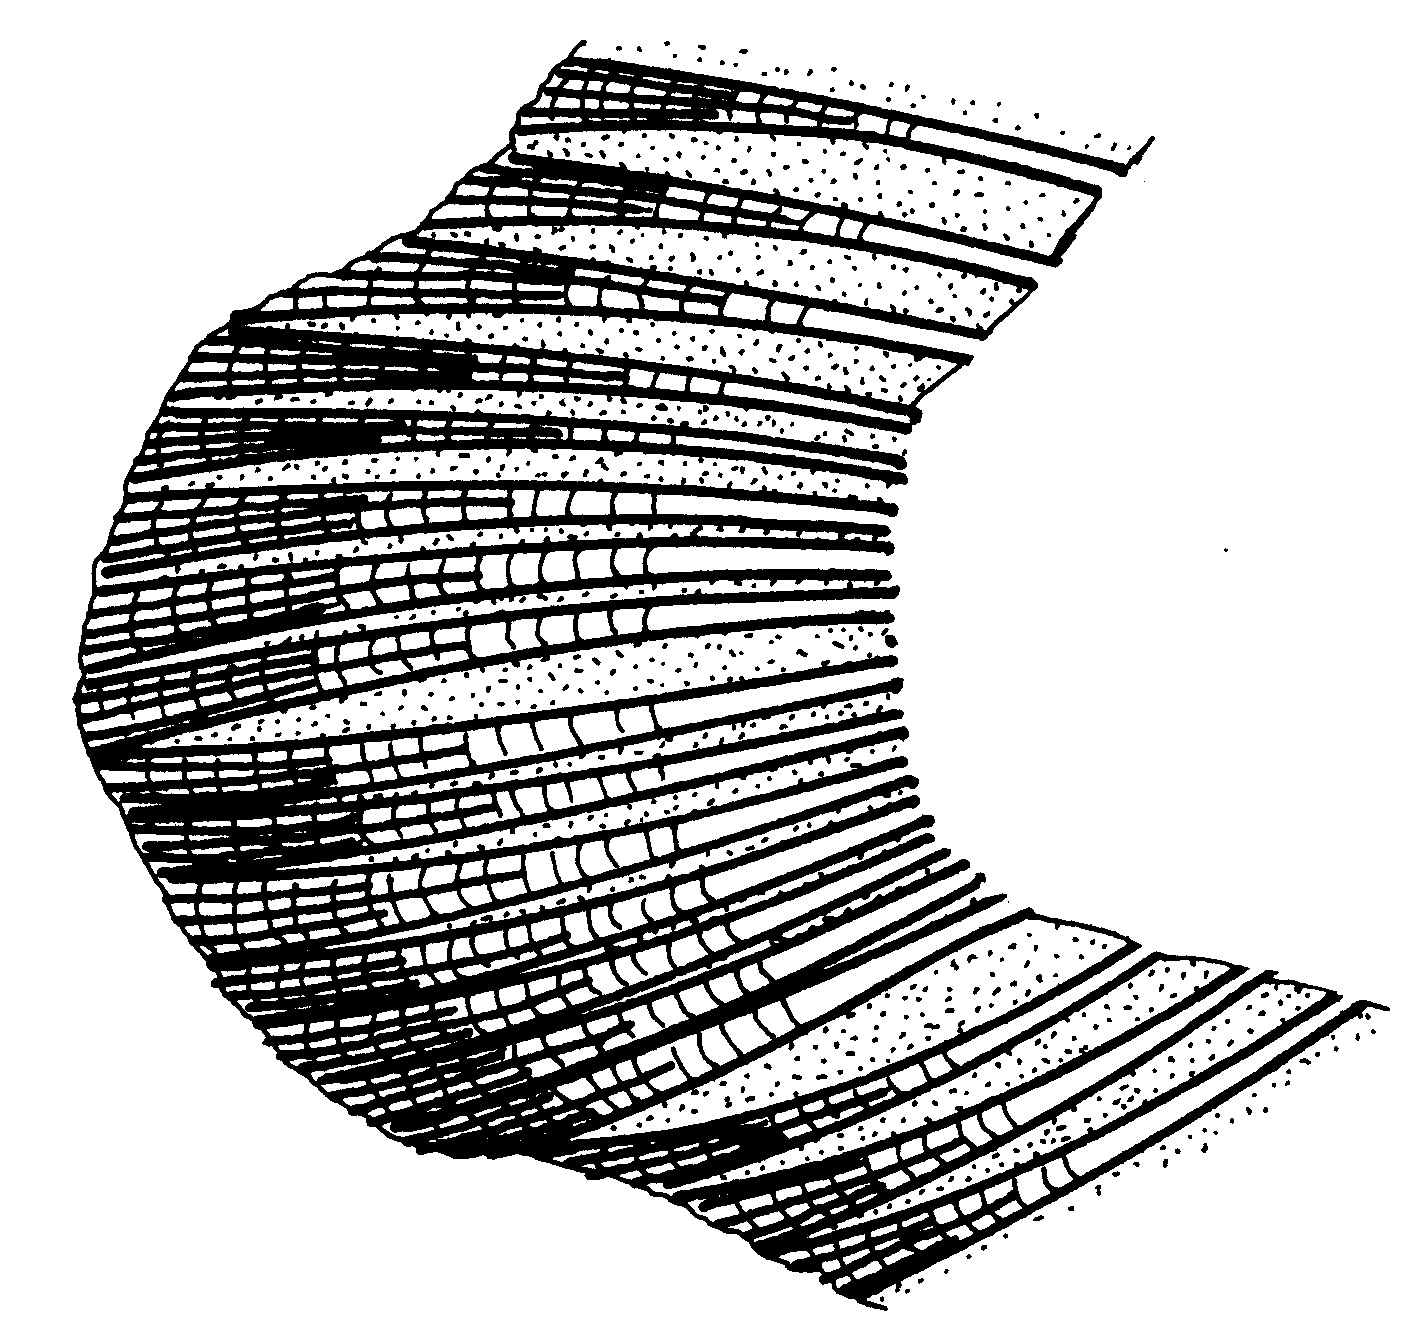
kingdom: Animalia
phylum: Chordata
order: Pleuronectiformes
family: Soleidae
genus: Zebrias
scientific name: Zebrias
